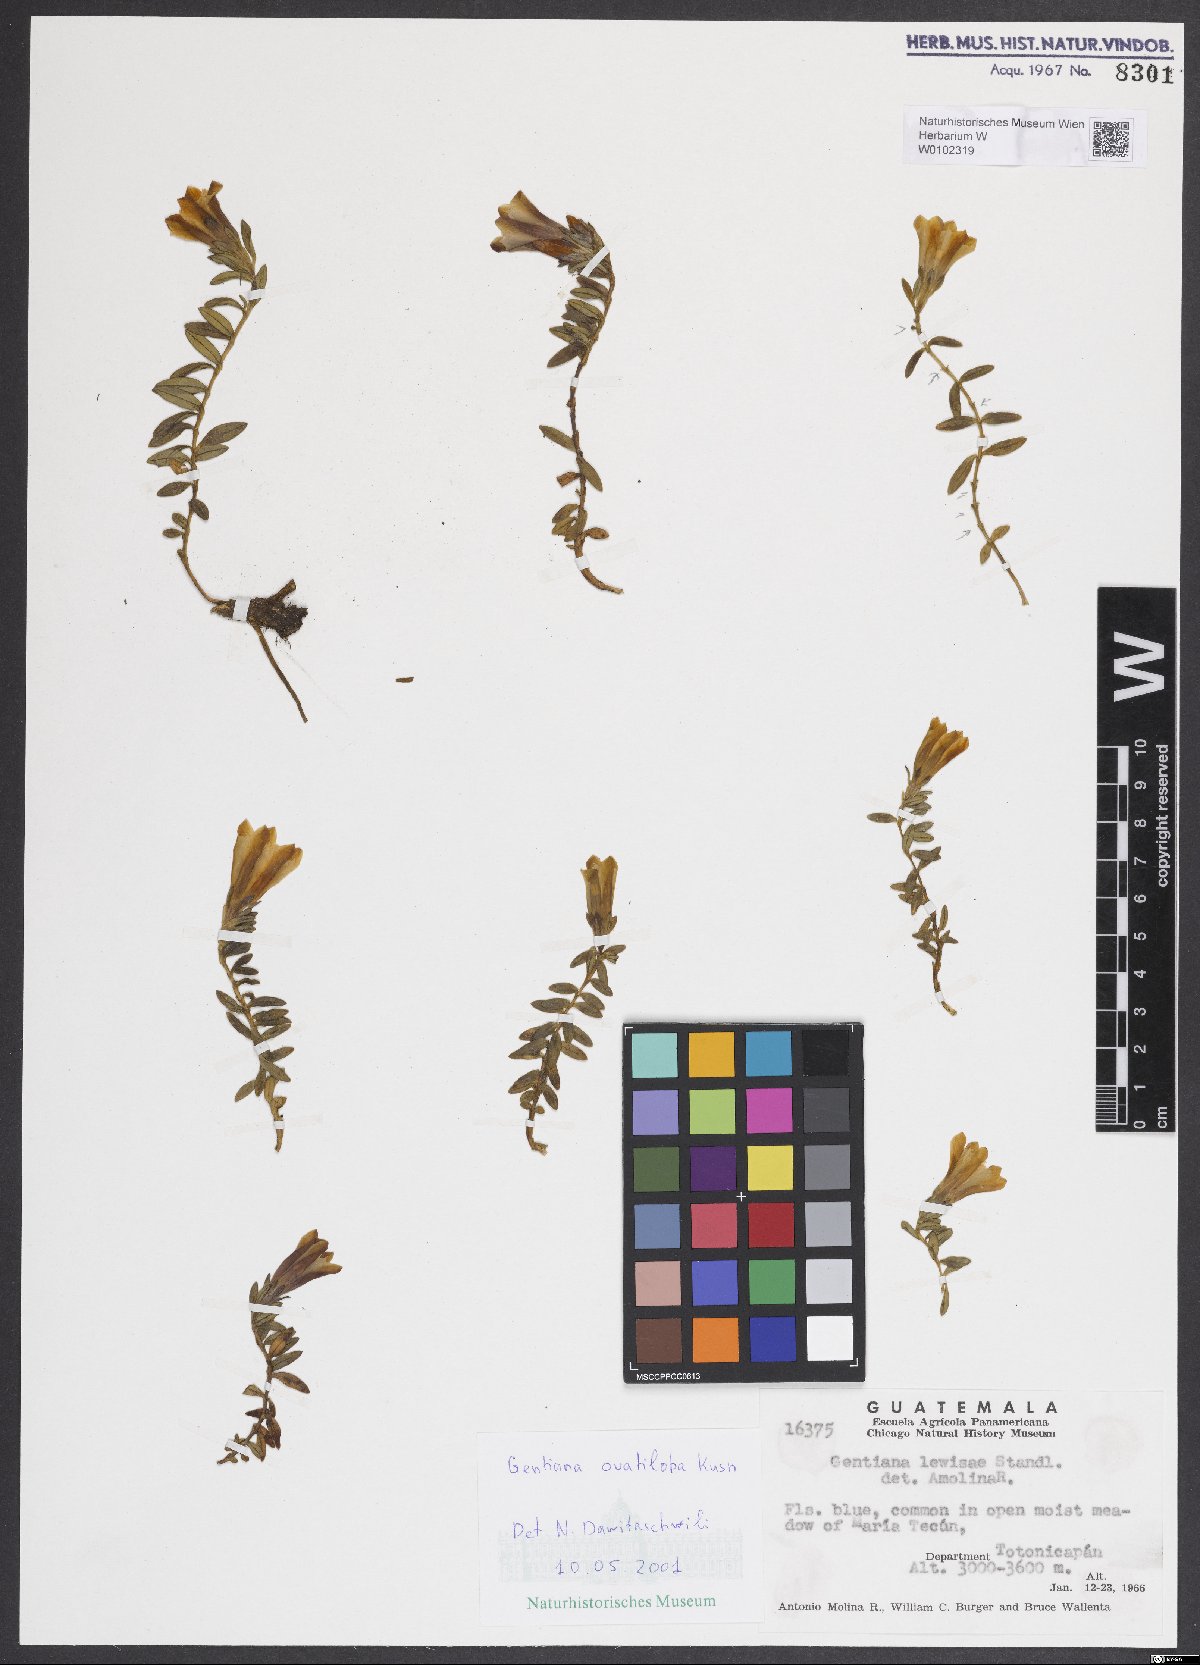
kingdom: Plantae
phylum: Tracheophyta
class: Magnoliopsida
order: Gentianales
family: Gentianaceae
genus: Gentiana
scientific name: Gentiana ovatiloba
